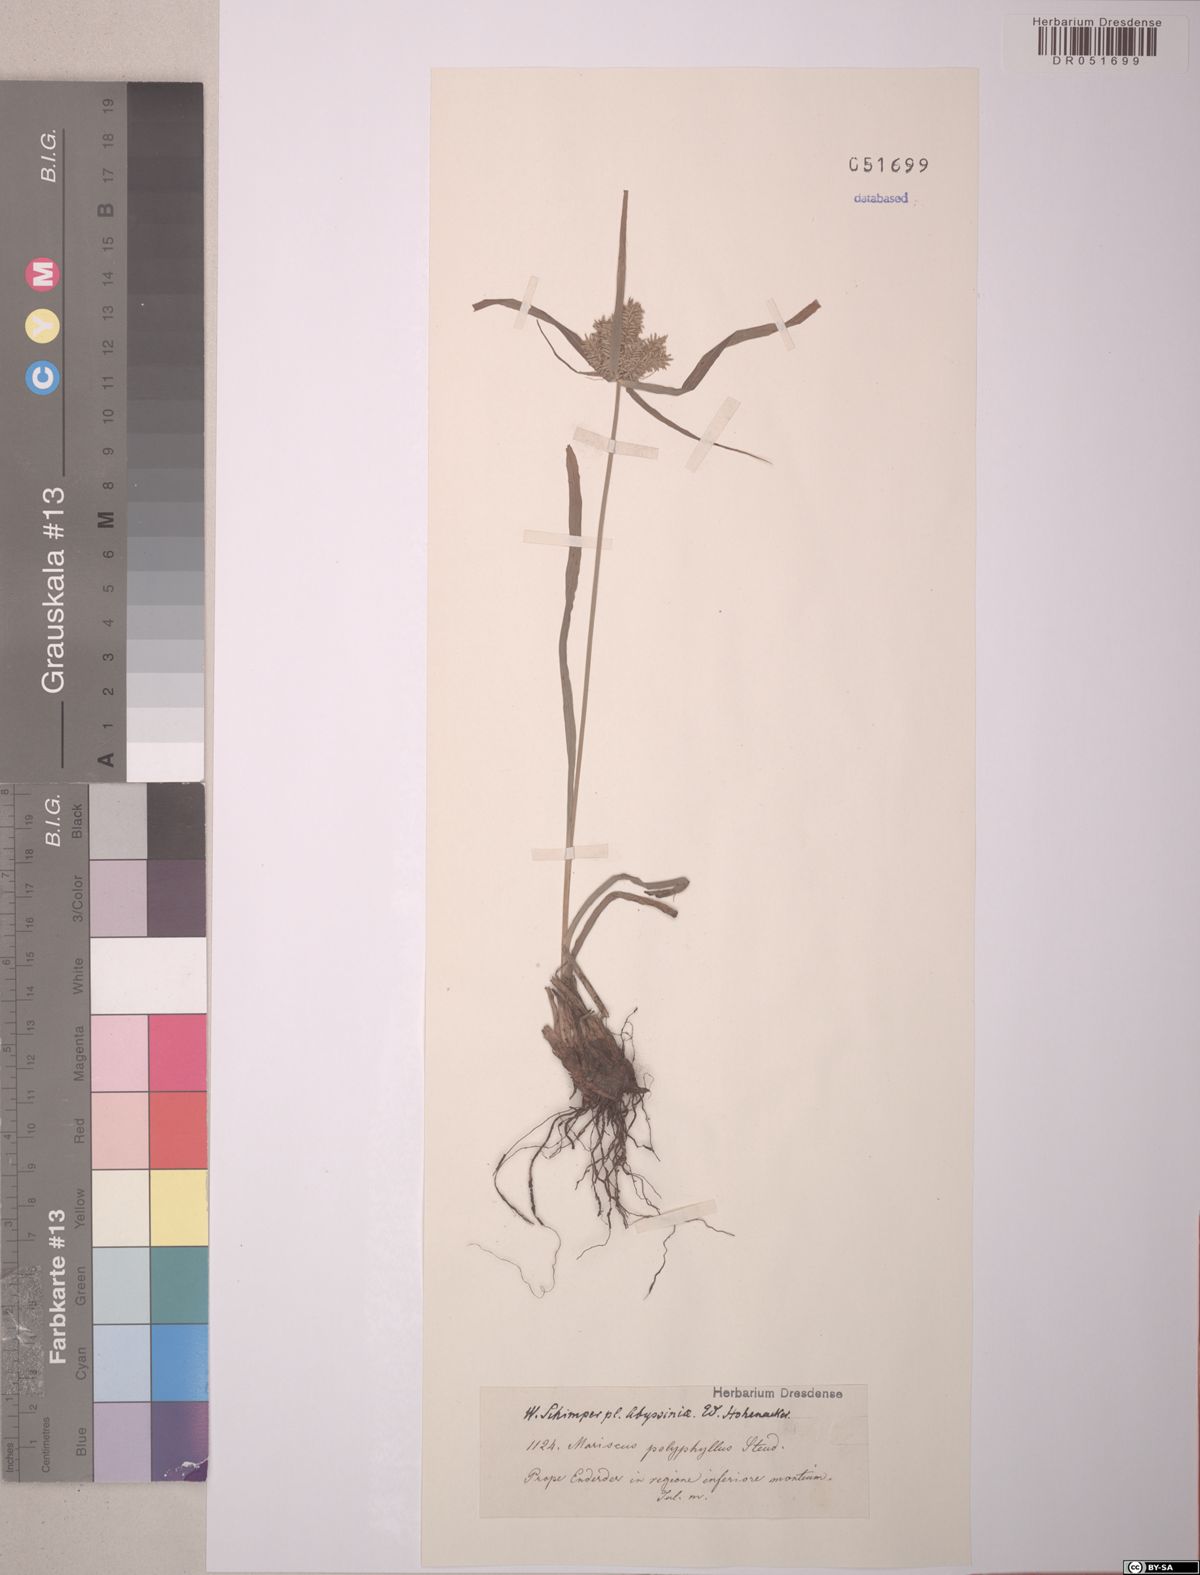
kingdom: Plantae
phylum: Tracheophyta
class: Liliopsida
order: Poales
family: Cyperaceae
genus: Cyperus
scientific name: Cyperus cyperoides
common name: Pacific island flat sedge
